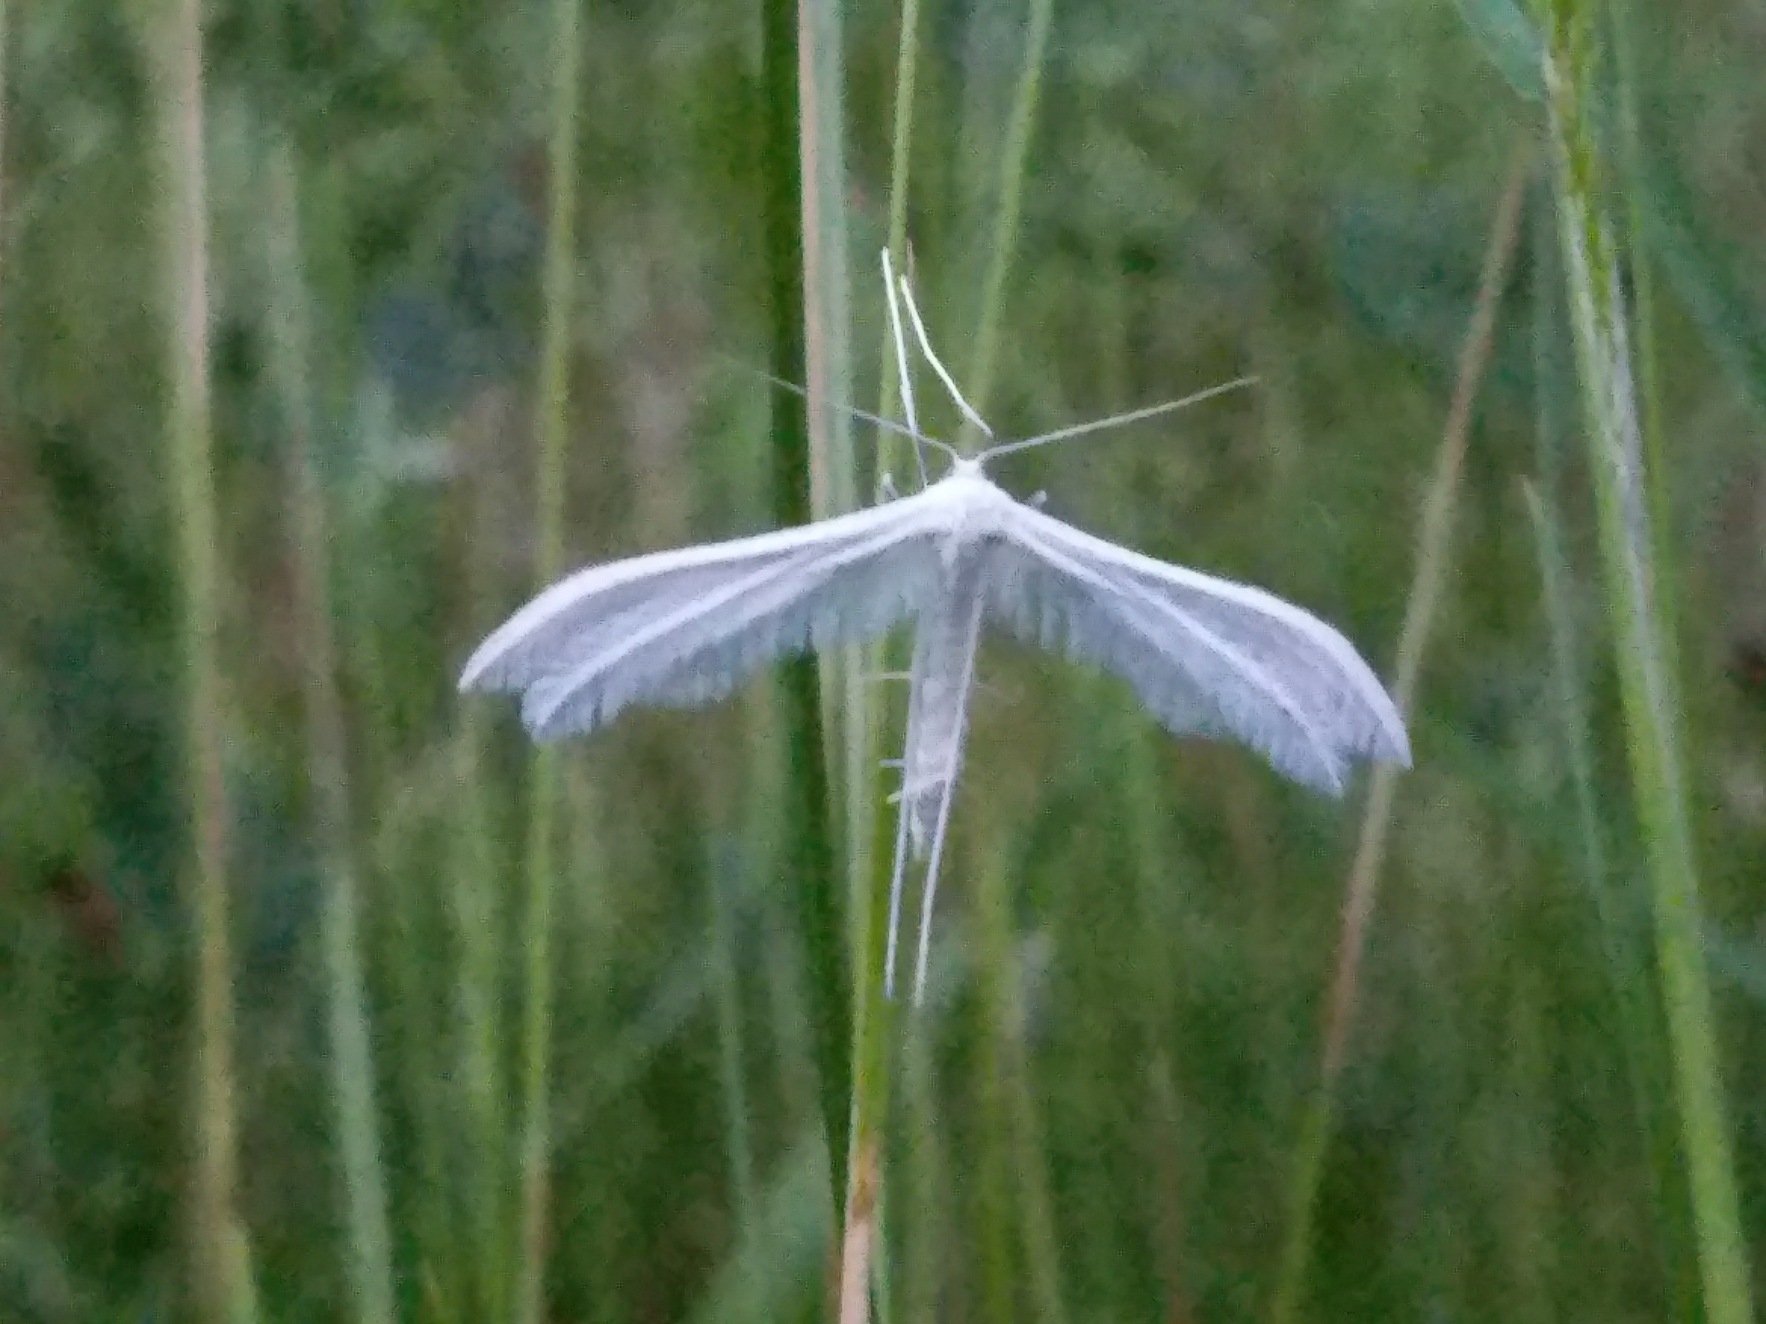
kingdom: Animalia
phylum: Arthropoda
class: Insecta
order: Lepidoptera
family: Pterophoridae
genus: Pterophorus
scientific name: Pterophorus pentadactyla
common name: Hvidt fjermøl
